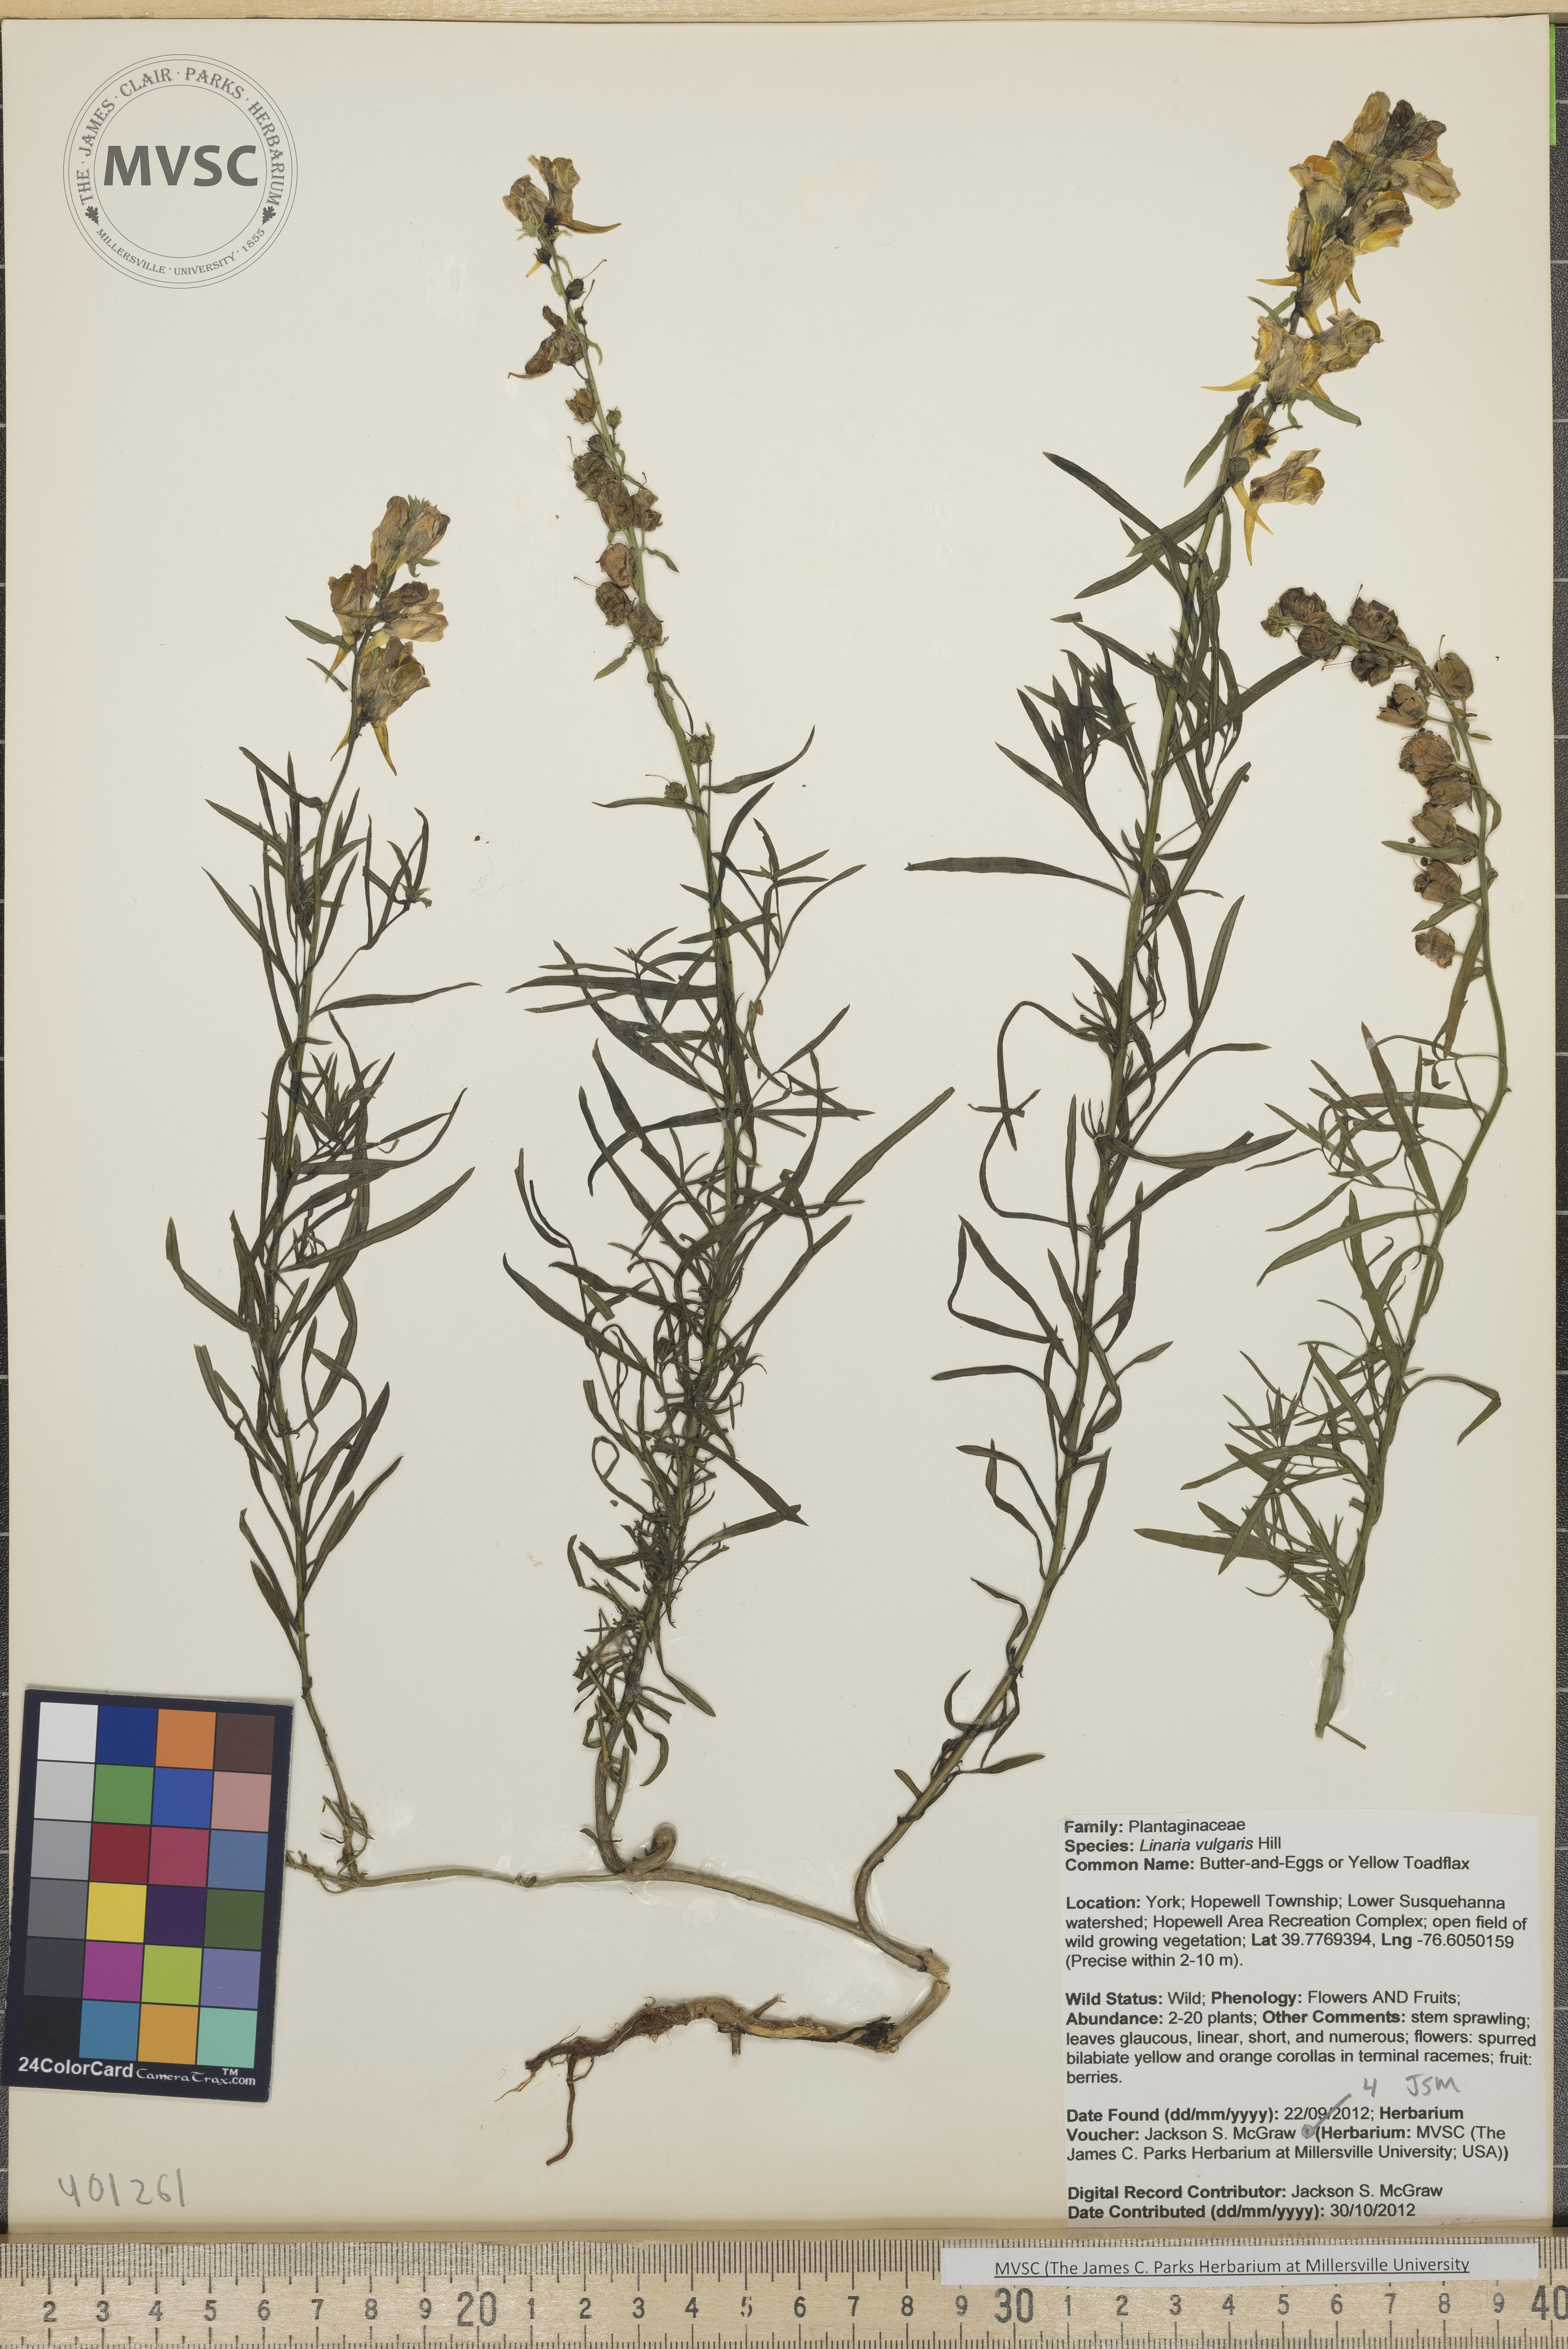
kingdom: Plantae
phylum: Tracheophyta
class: Magnoliopsida
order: Lamiales
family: Plantaginaceae
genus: Linaria
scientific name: Linaria vulgaris
